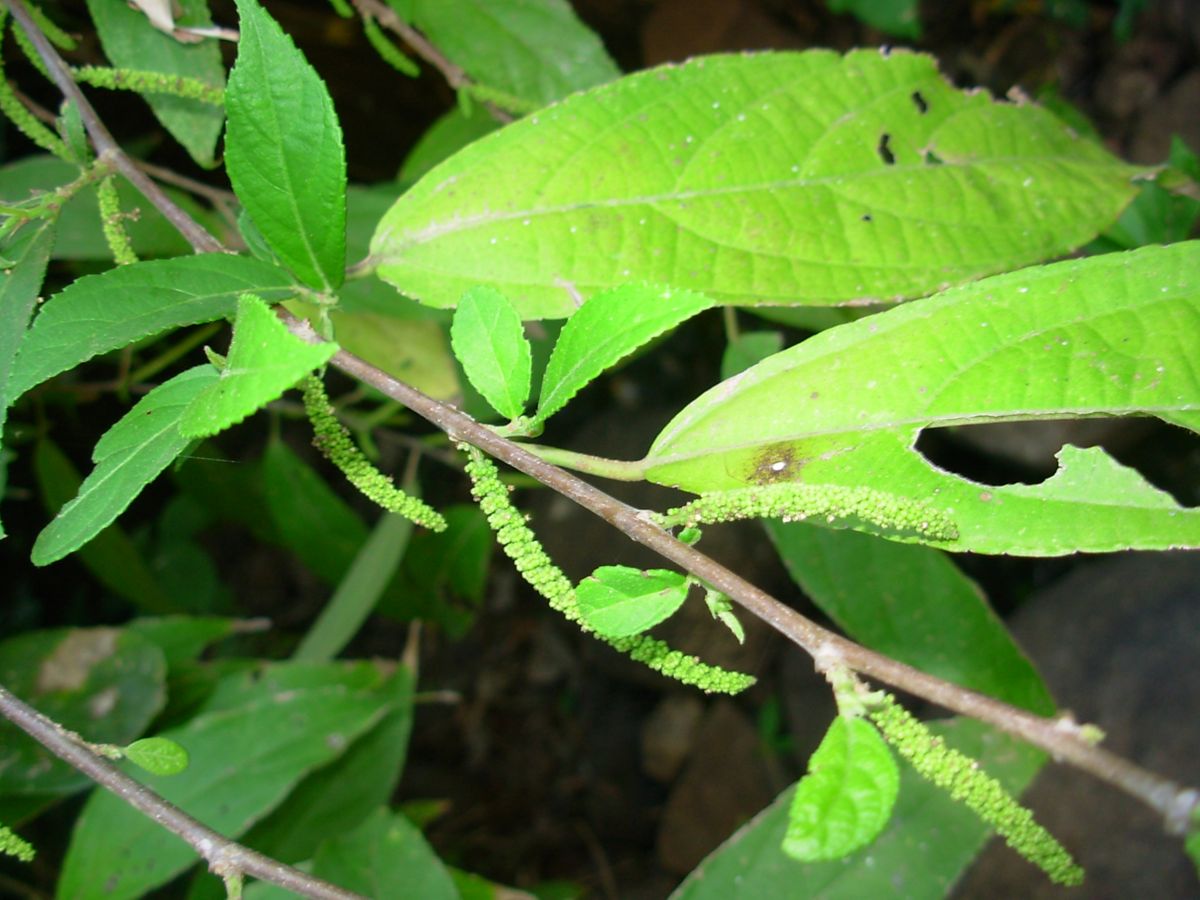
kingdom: Plantae
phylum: Tracheophyta
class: Magnoliopsida
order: Malpighiales
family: Euphorbiaceae
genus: Acalypha
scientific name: Acalypha diversifolia
